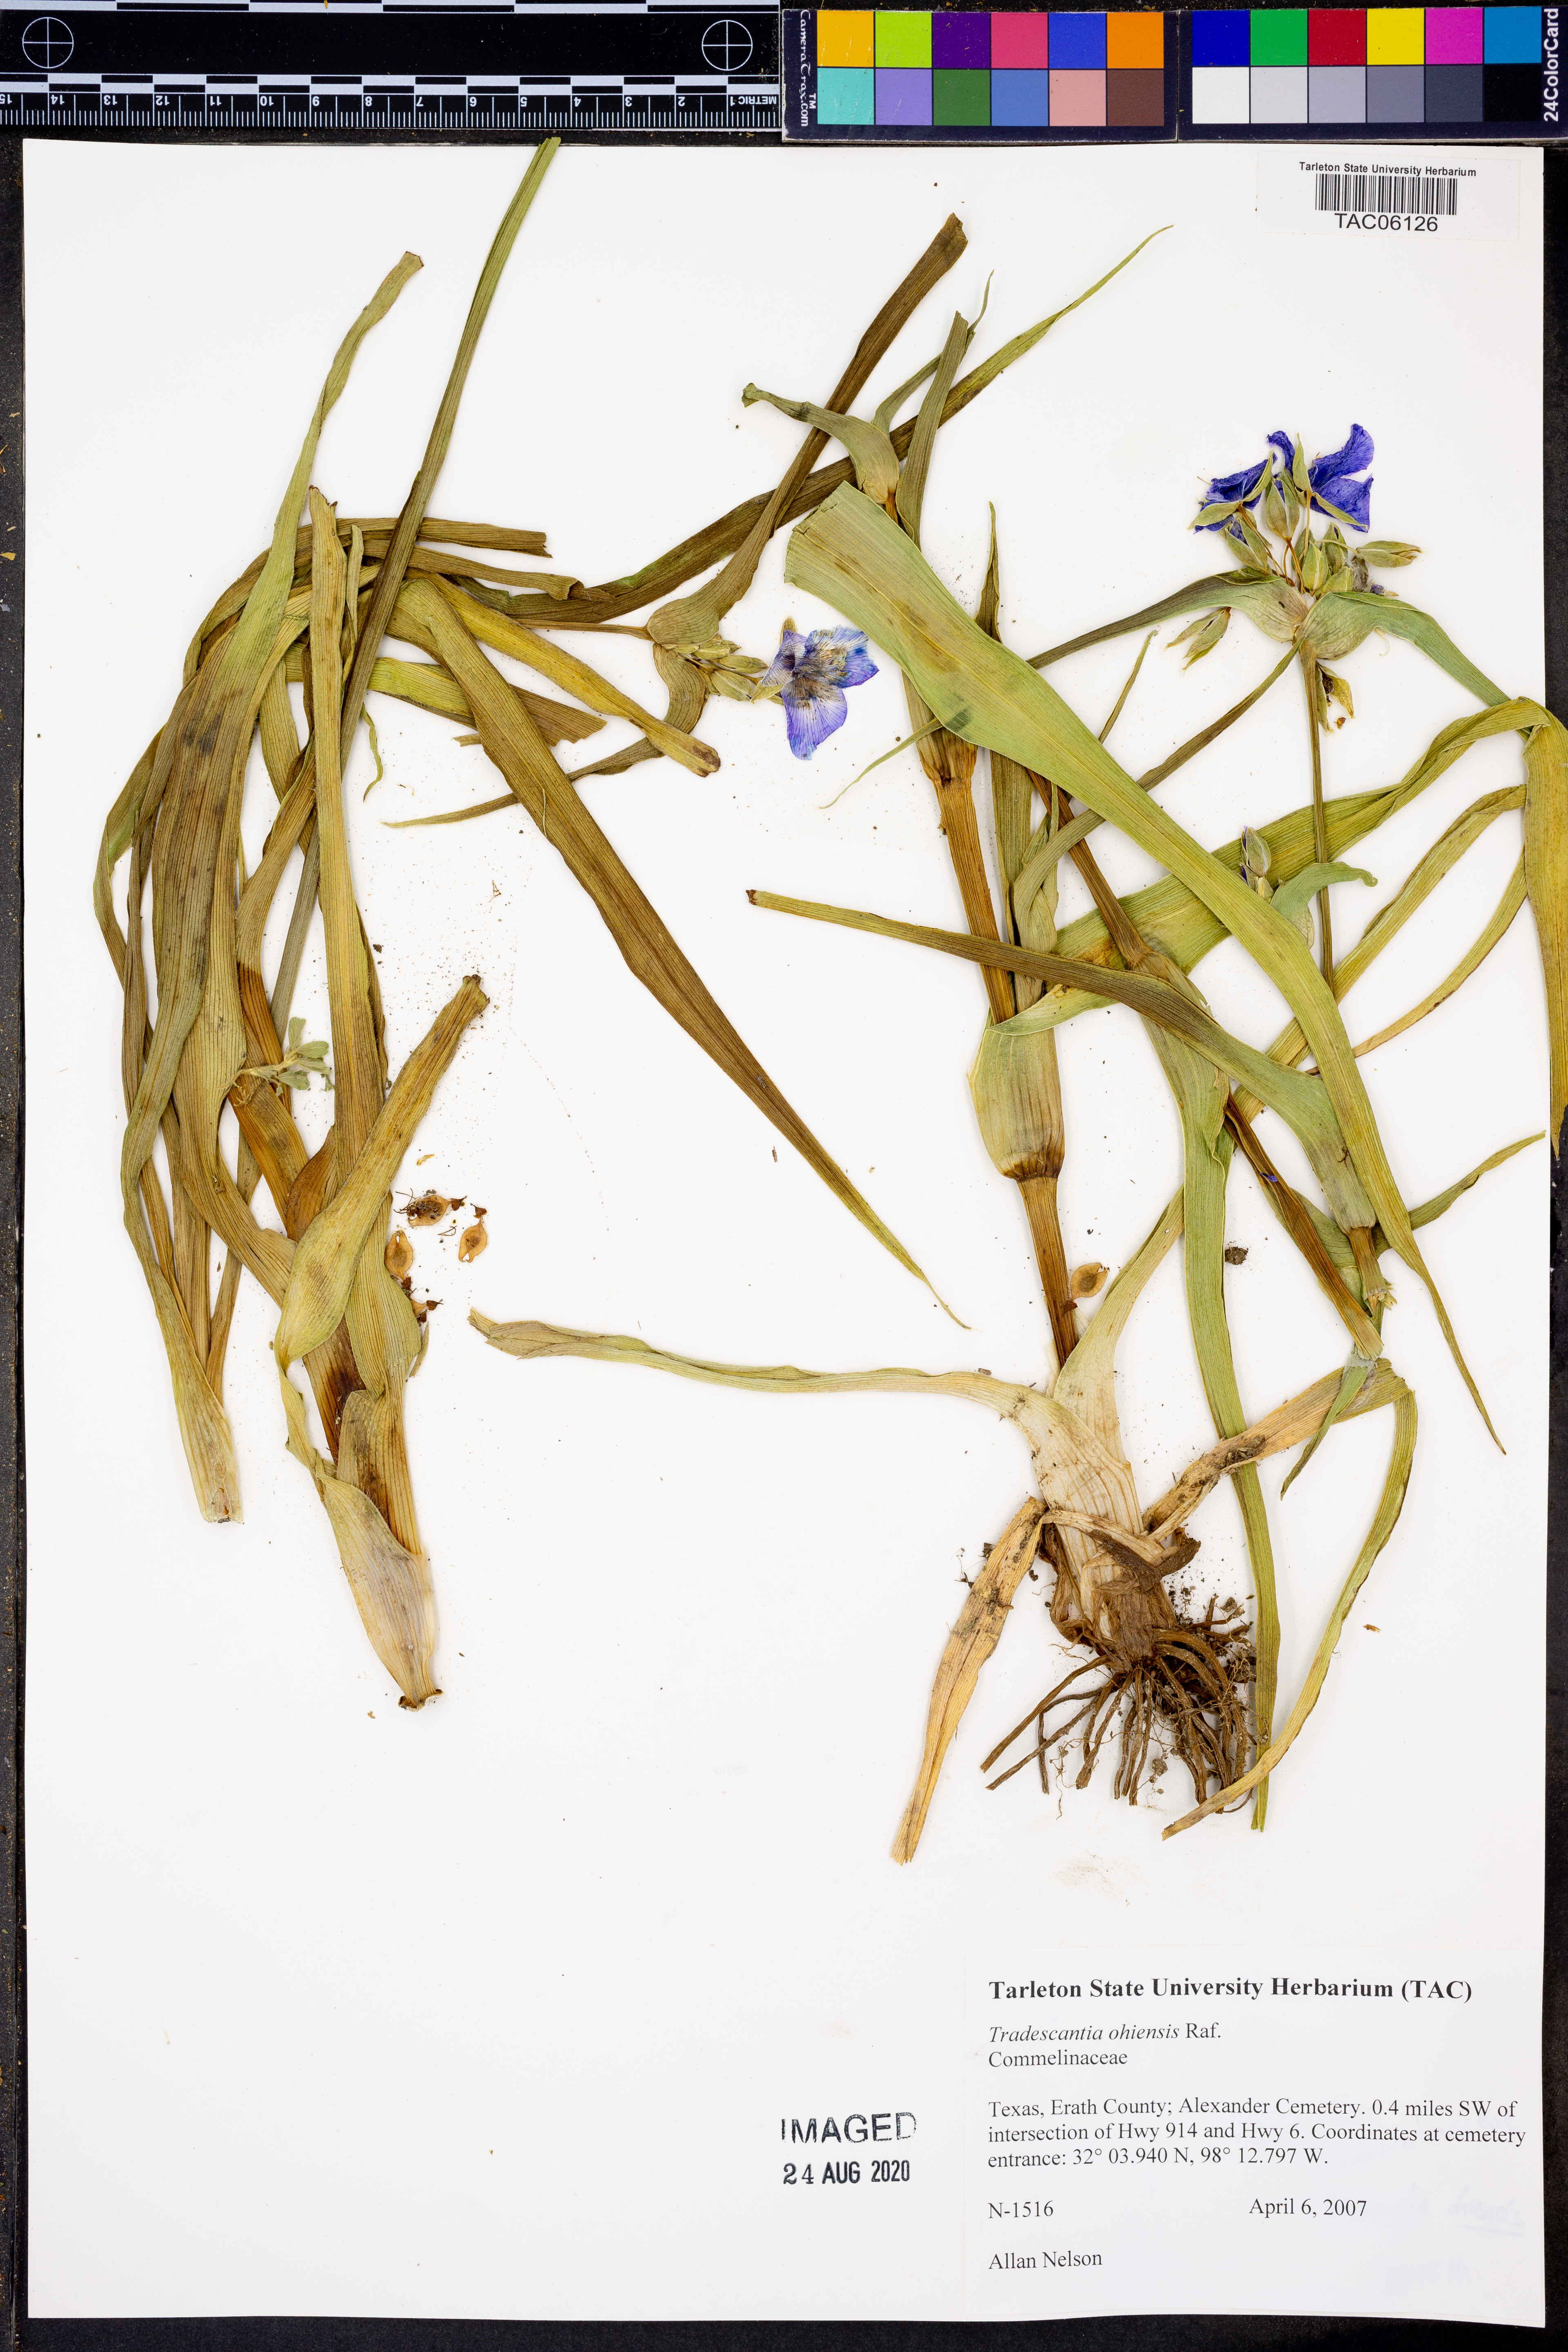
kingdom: Plantae
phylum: Tracheophyta
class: Liliopsida
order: Commelinales
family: Commelinaceae
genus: Tradescantia
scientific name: Tradescantia ohiensis
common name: Ohio spiderwort
